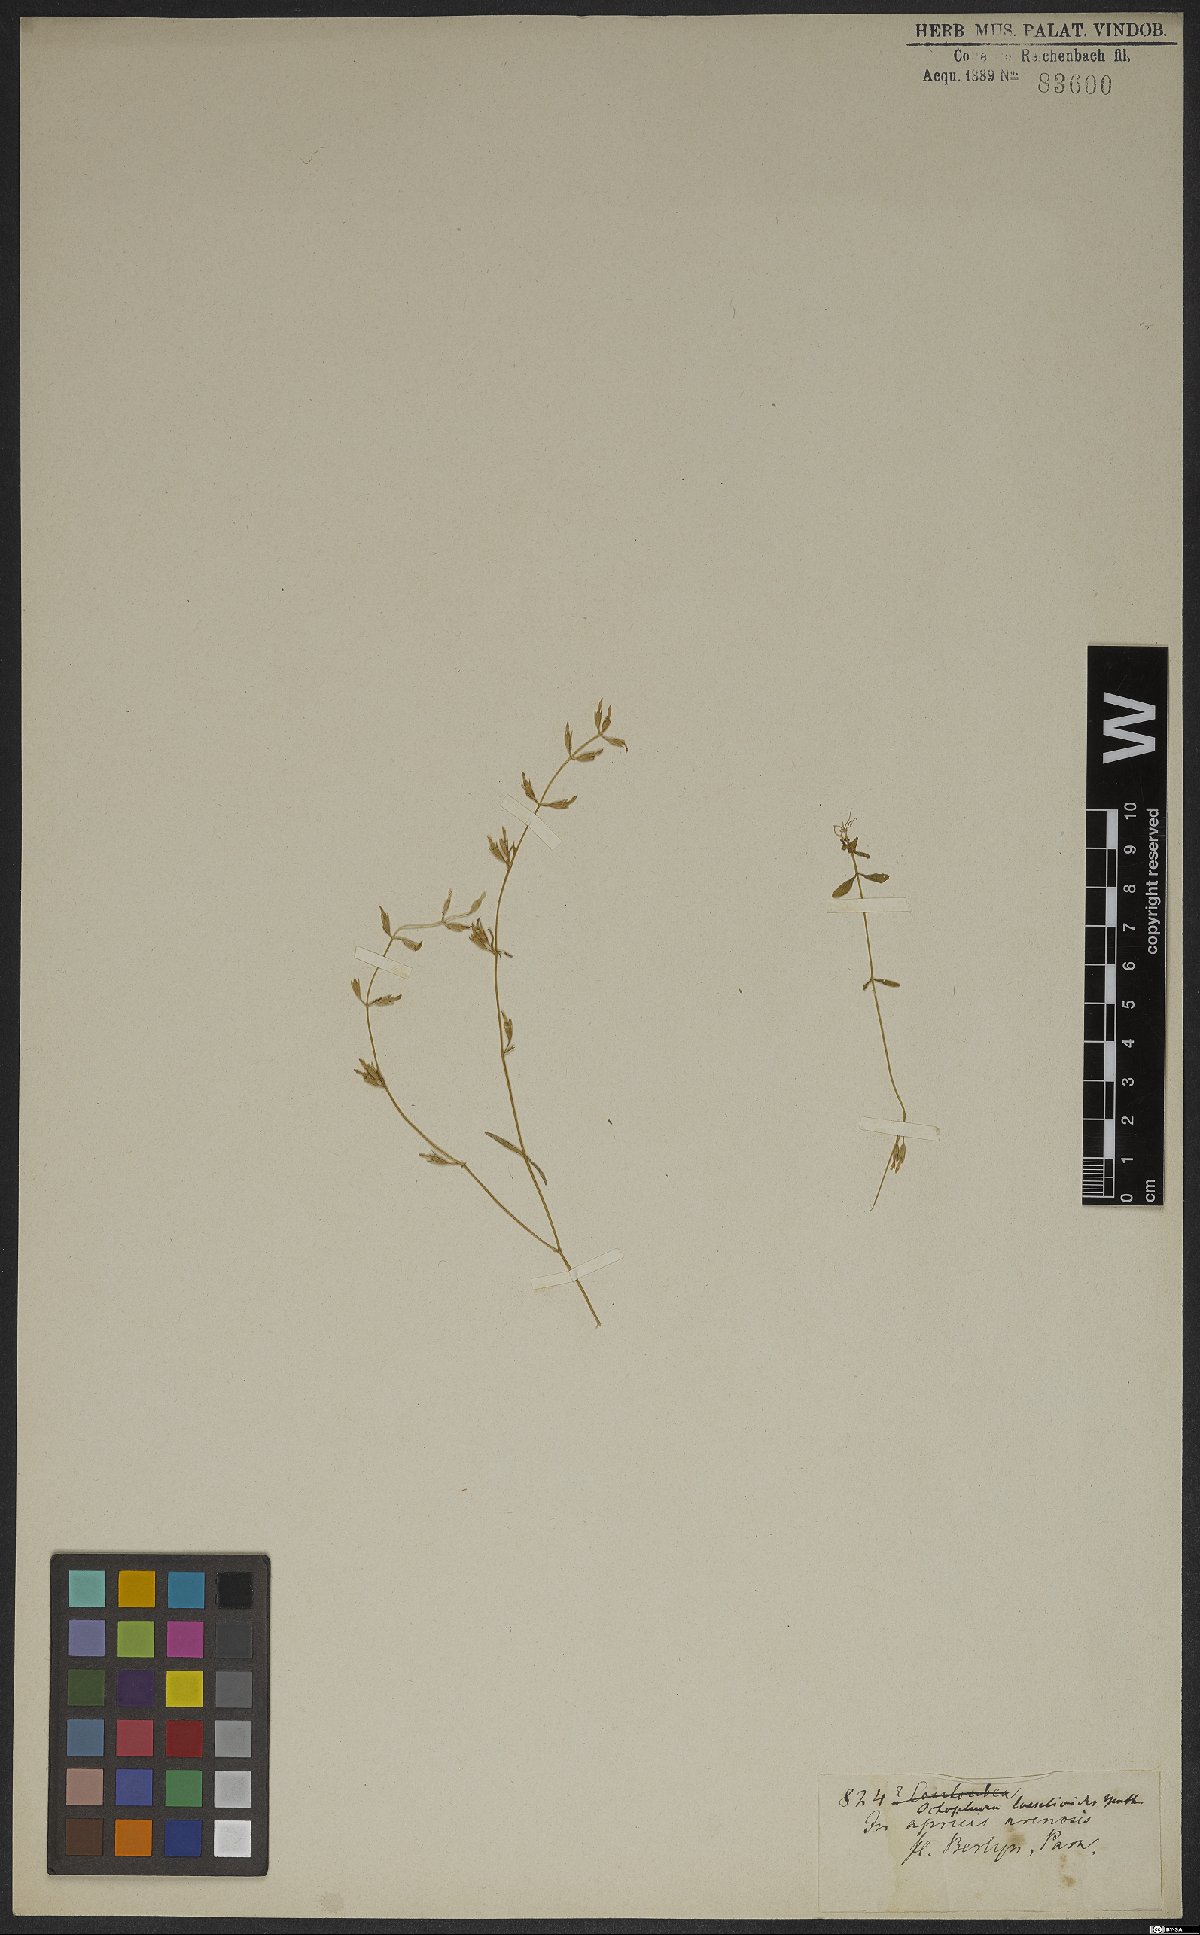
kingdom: Plantae
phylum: Tracheophyta
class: Magnoliopsida
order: Gentianales
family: Gentianaceae
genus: Neurotheca
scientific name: Neurotheca loeselioides
